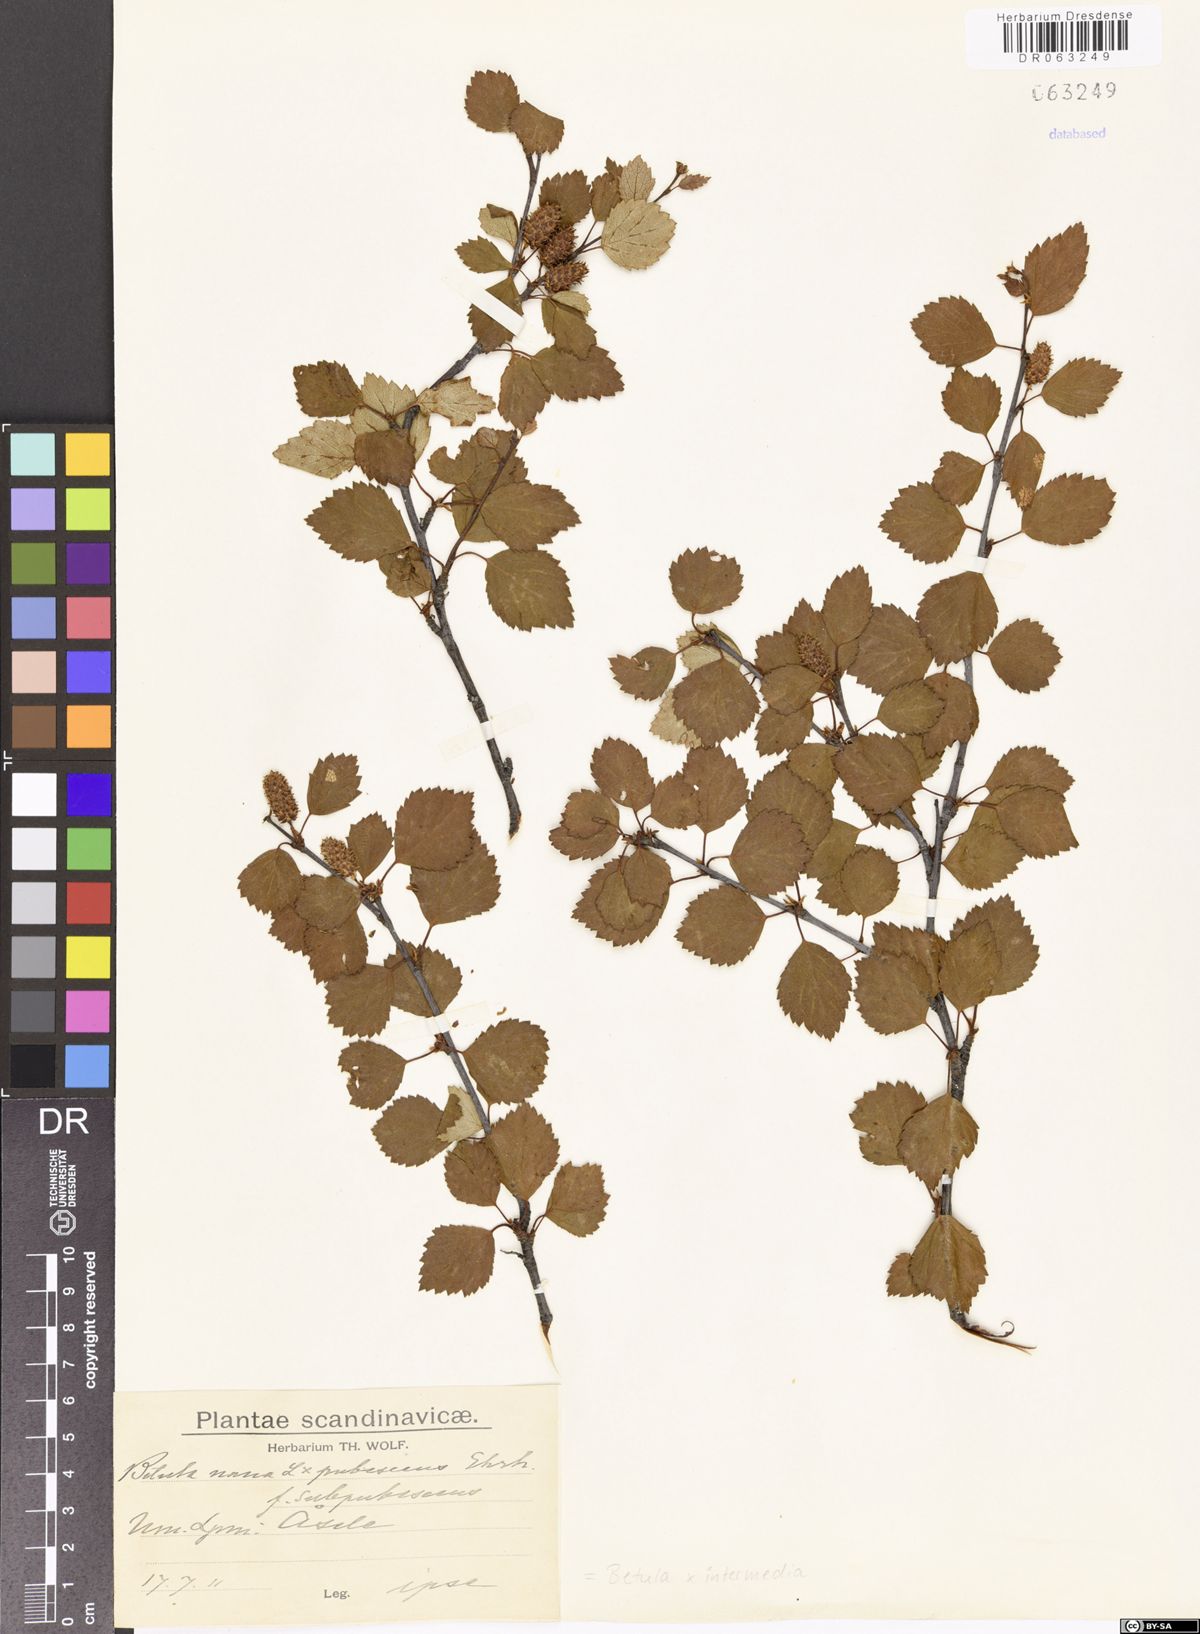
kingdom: Plantae
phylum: Tracheophyta
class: Magnoliopsida
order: Fagales
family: Betulaceae
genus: Betula
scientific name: Betula intermedia
